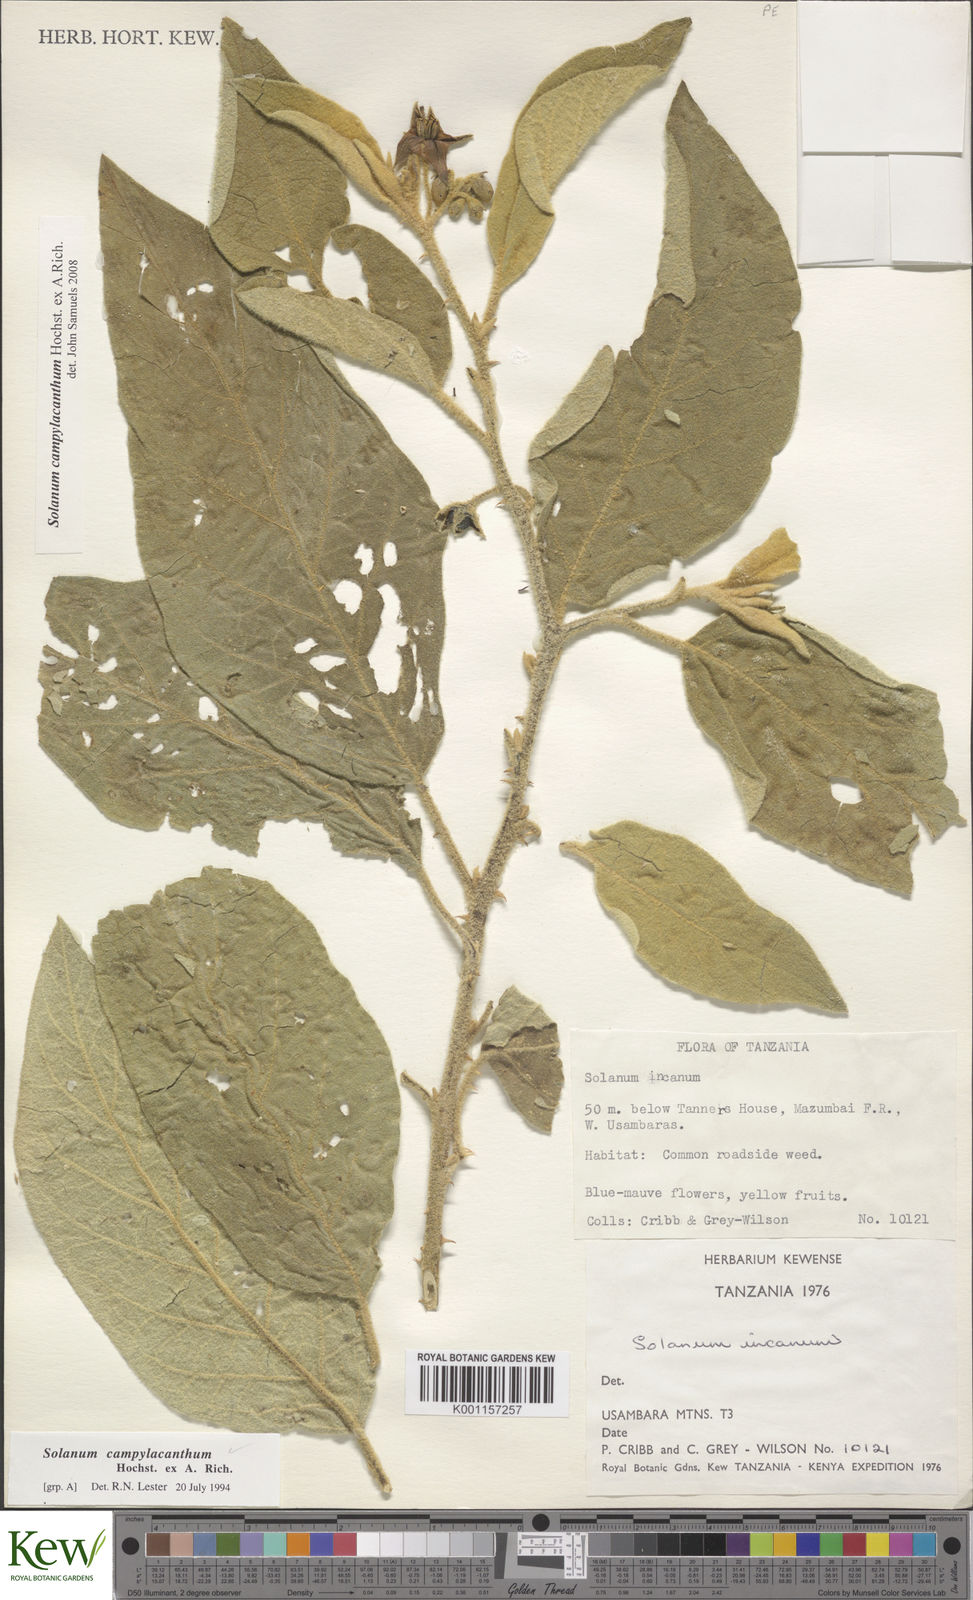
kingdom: Plantae
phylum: Tracheophyta
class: Magnoliopsida
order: Solanales
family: Solanaceae
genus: Solanum
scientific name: Solanum campylacanthum
